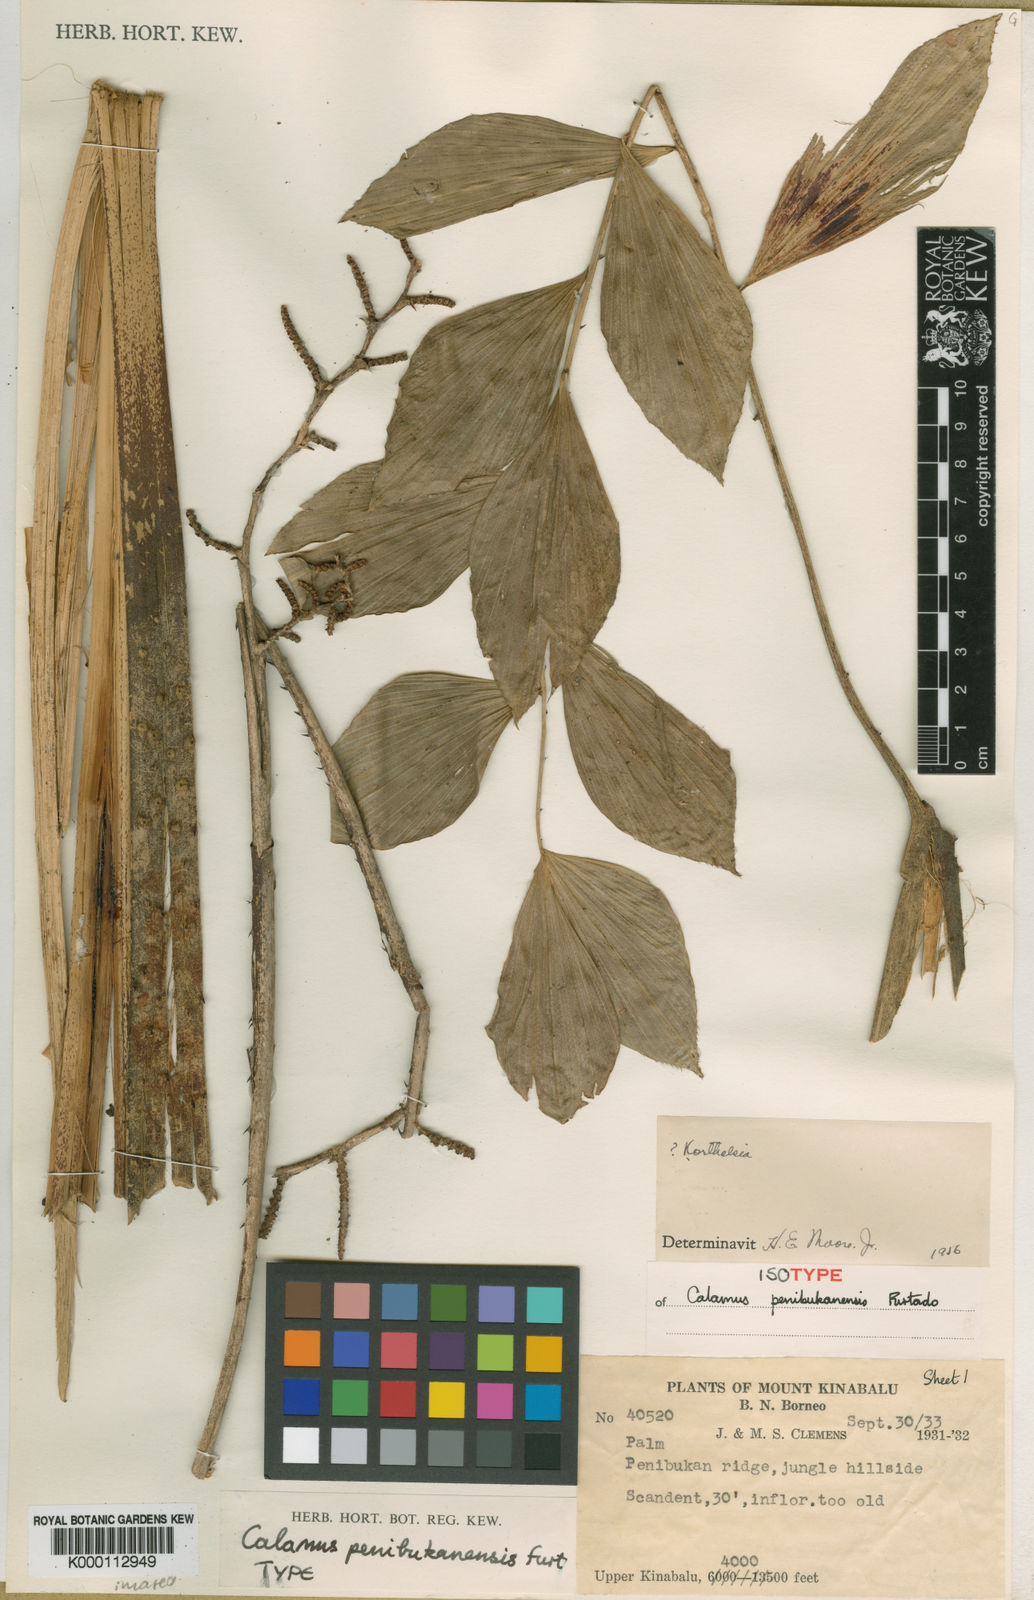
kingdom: Plantae
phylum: Tracheophyta
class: Liliopsida
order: Arecales
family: Arecaceae
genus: Calamus
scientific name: Calamus rhomboideus
